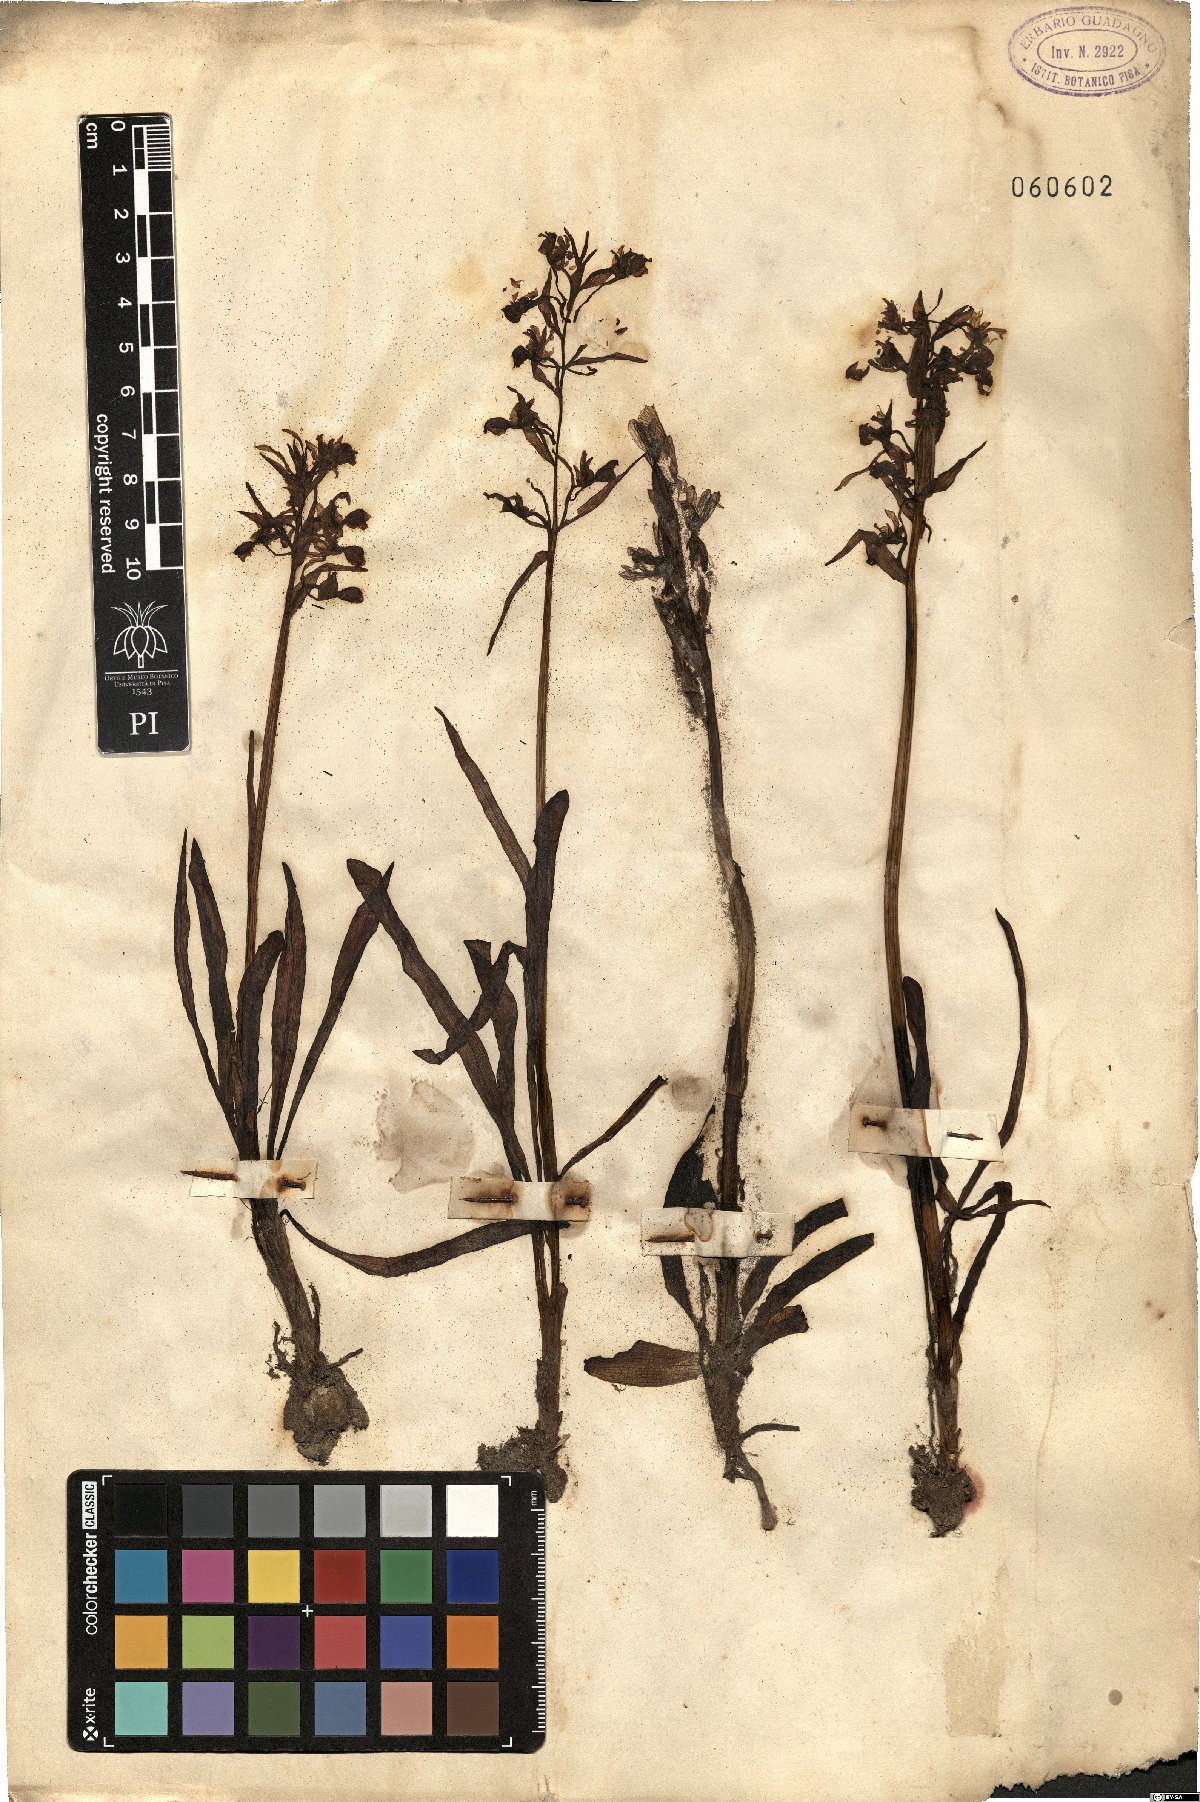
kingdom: Plantae
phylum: Tracheophyta
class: Liliopsida
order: Asparagales
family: Orchidaceae
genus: Orchis
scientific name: Orchis
